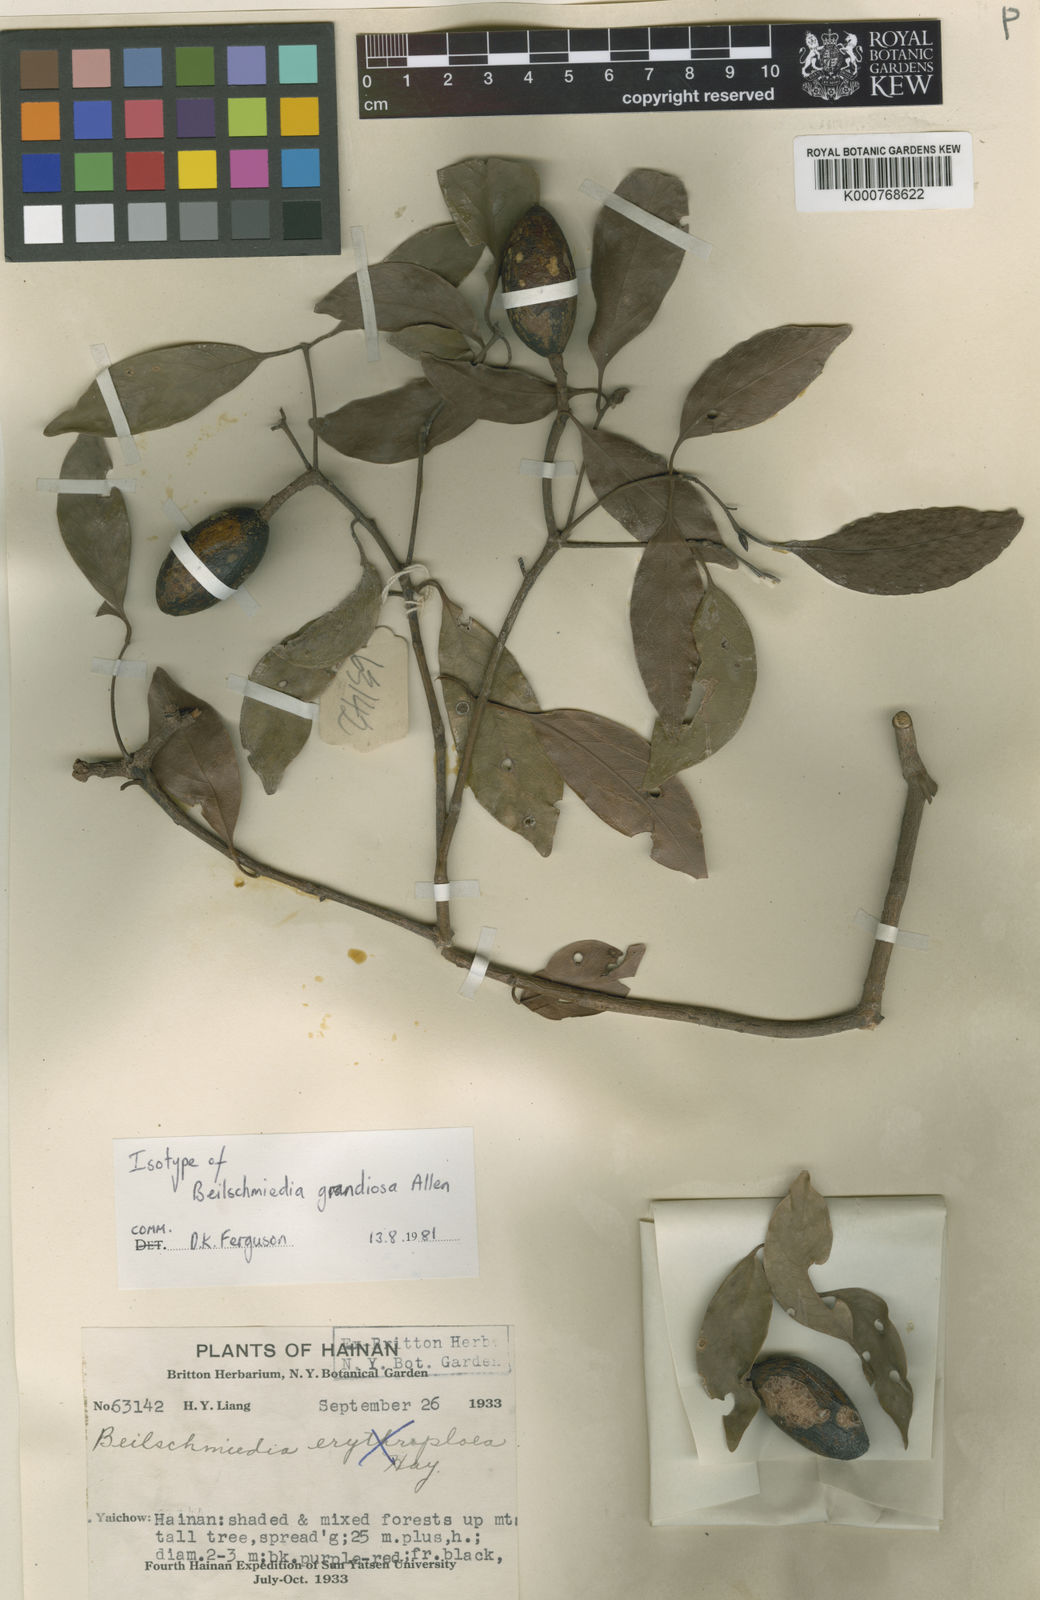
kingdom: Plantae
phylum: Tracheophyta
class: Magnoliopsida
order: Laurales
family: Lauraceae
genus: Beilschmiedia
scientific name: Beilschmiedia intermedia
